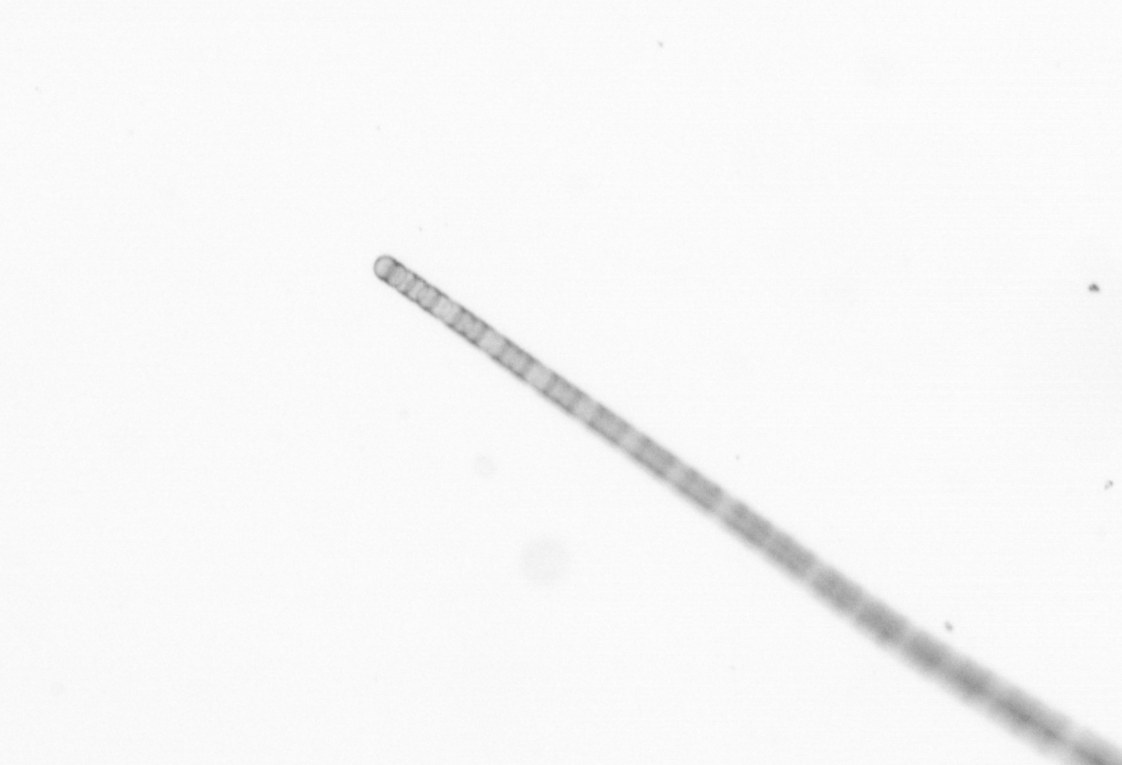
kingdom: Chromista
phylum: Ochrophyta
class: Bacillariophyceae
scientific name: Bacillariophyceae
